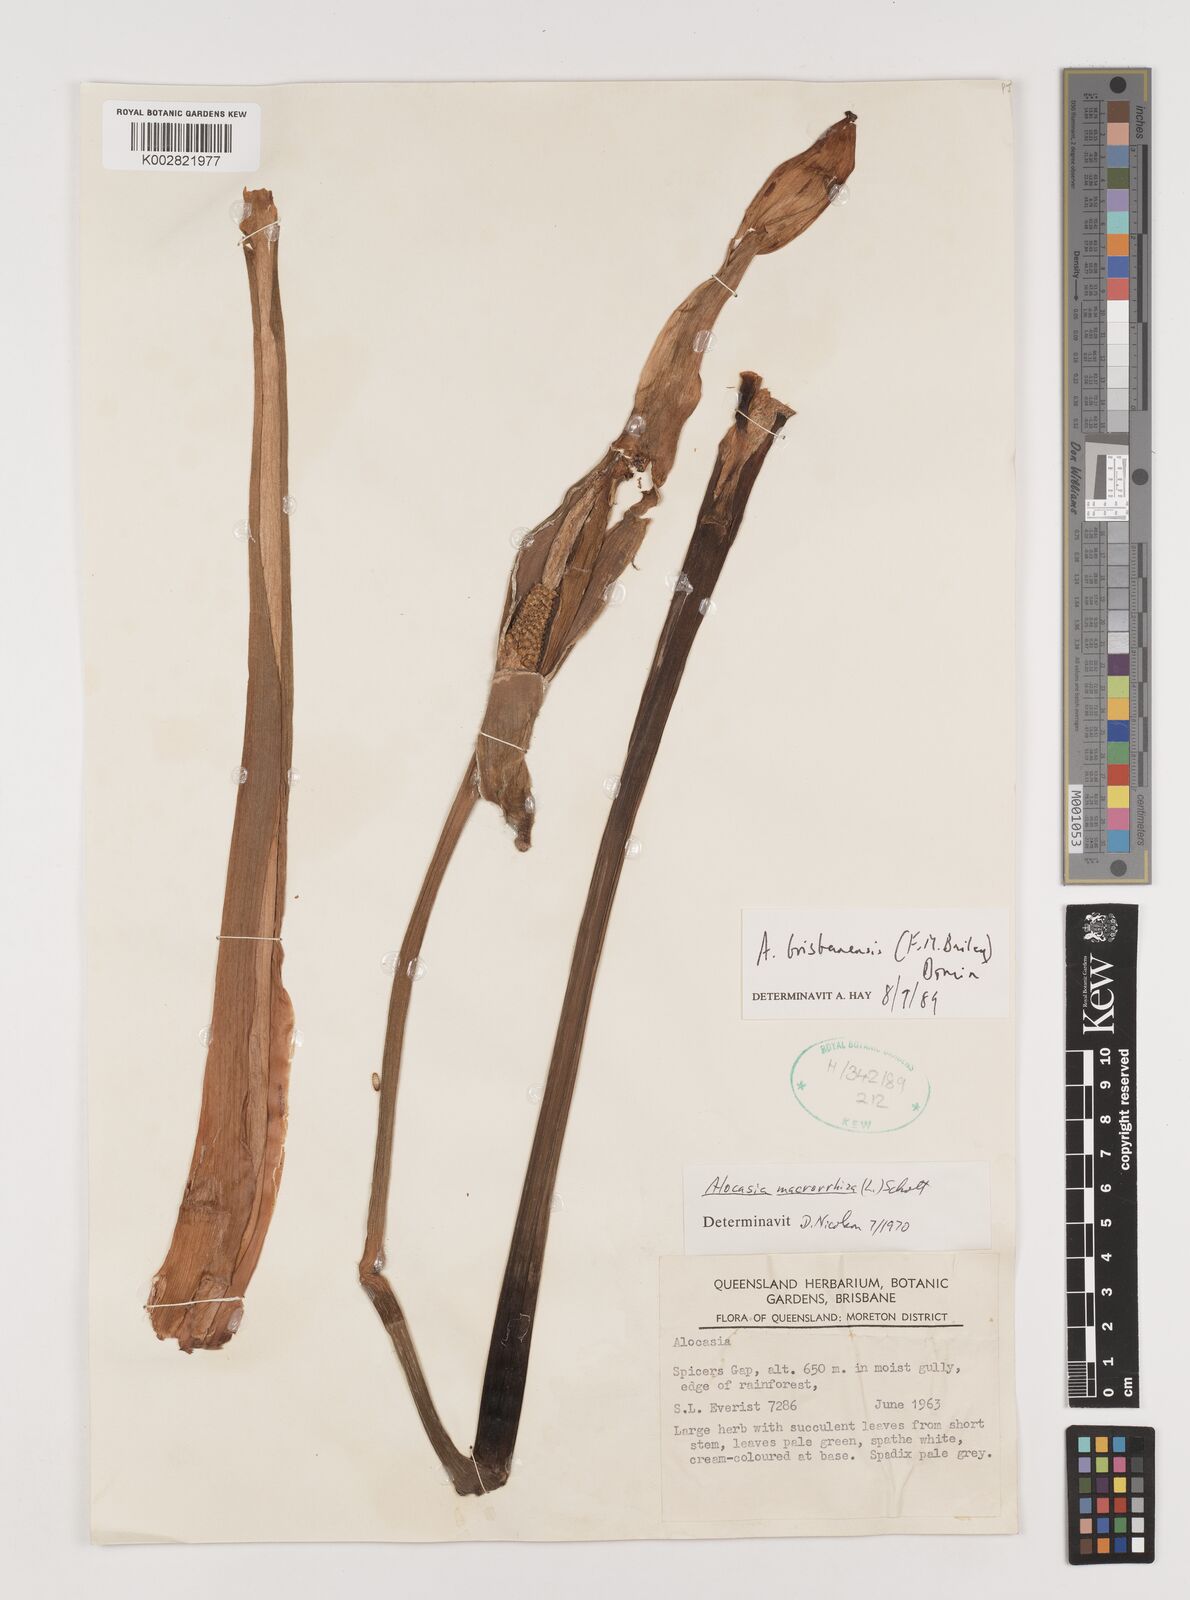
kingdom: Plantae
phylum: Tracheophyta
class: Liliopsida
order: Alismatales
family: Araceae
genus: Alocasia
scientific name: Alocasia brisbanensis
